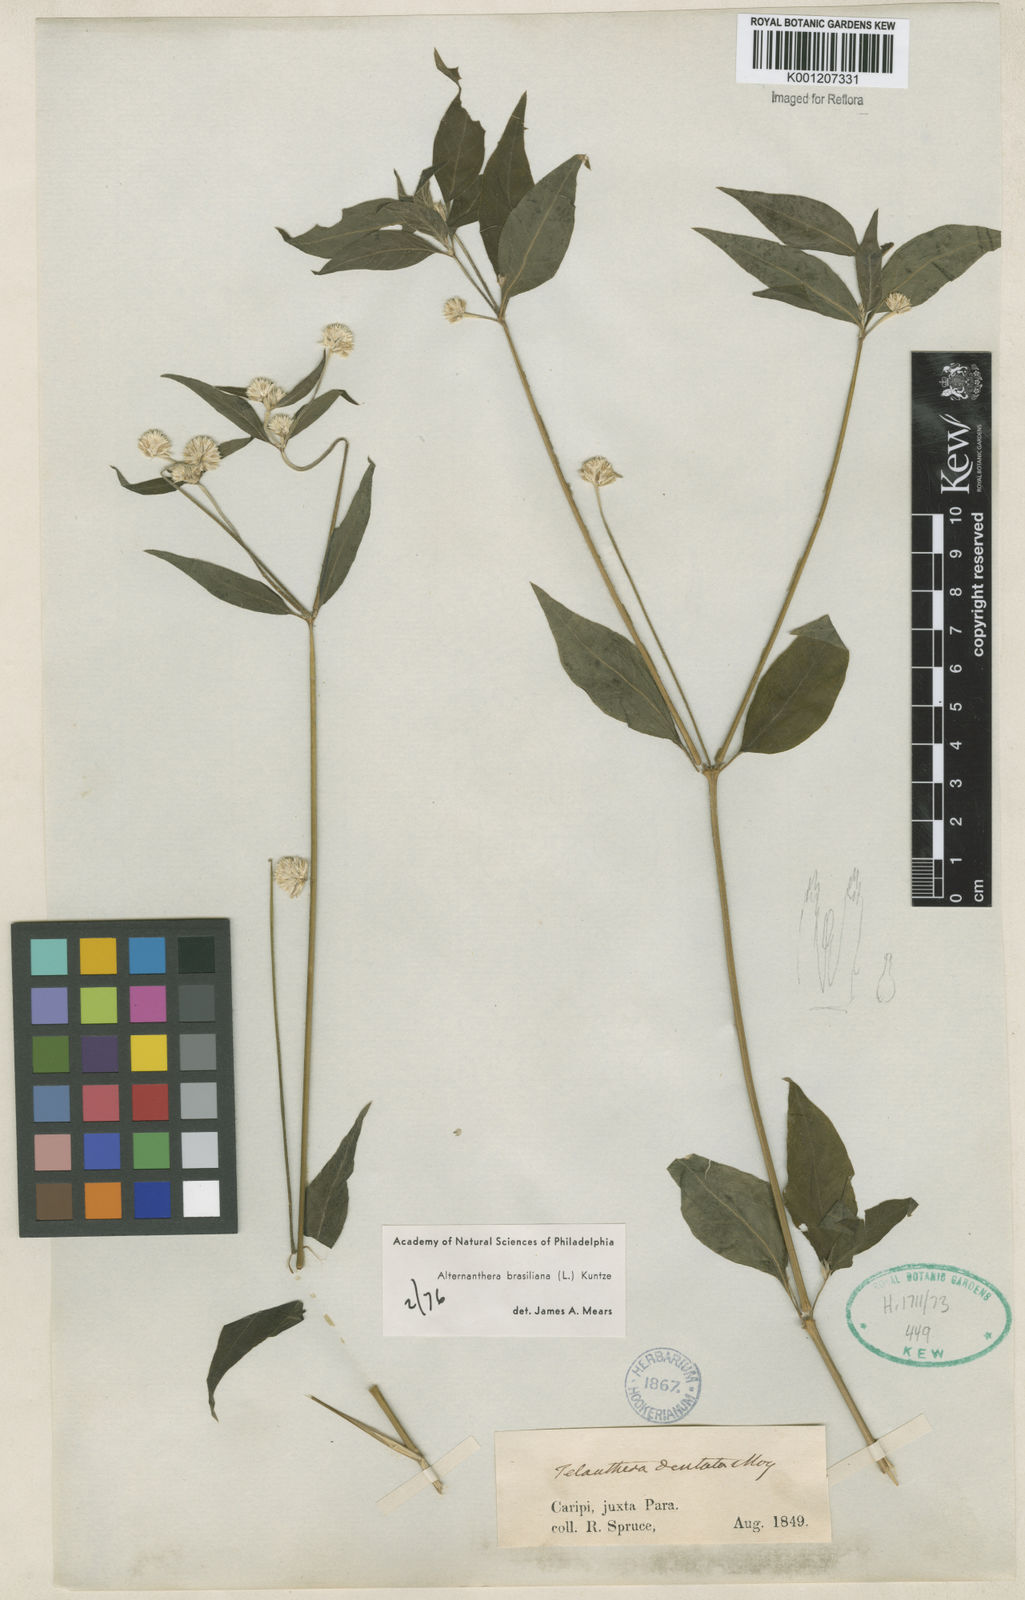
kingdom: Plantae
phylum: Tracheophyta
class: Magnoliopsida
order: Caryophyllales
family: Amaranthaceae
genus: Alternanthera
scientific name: Alternanthera brasiliana
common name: Brazilian joyweed
